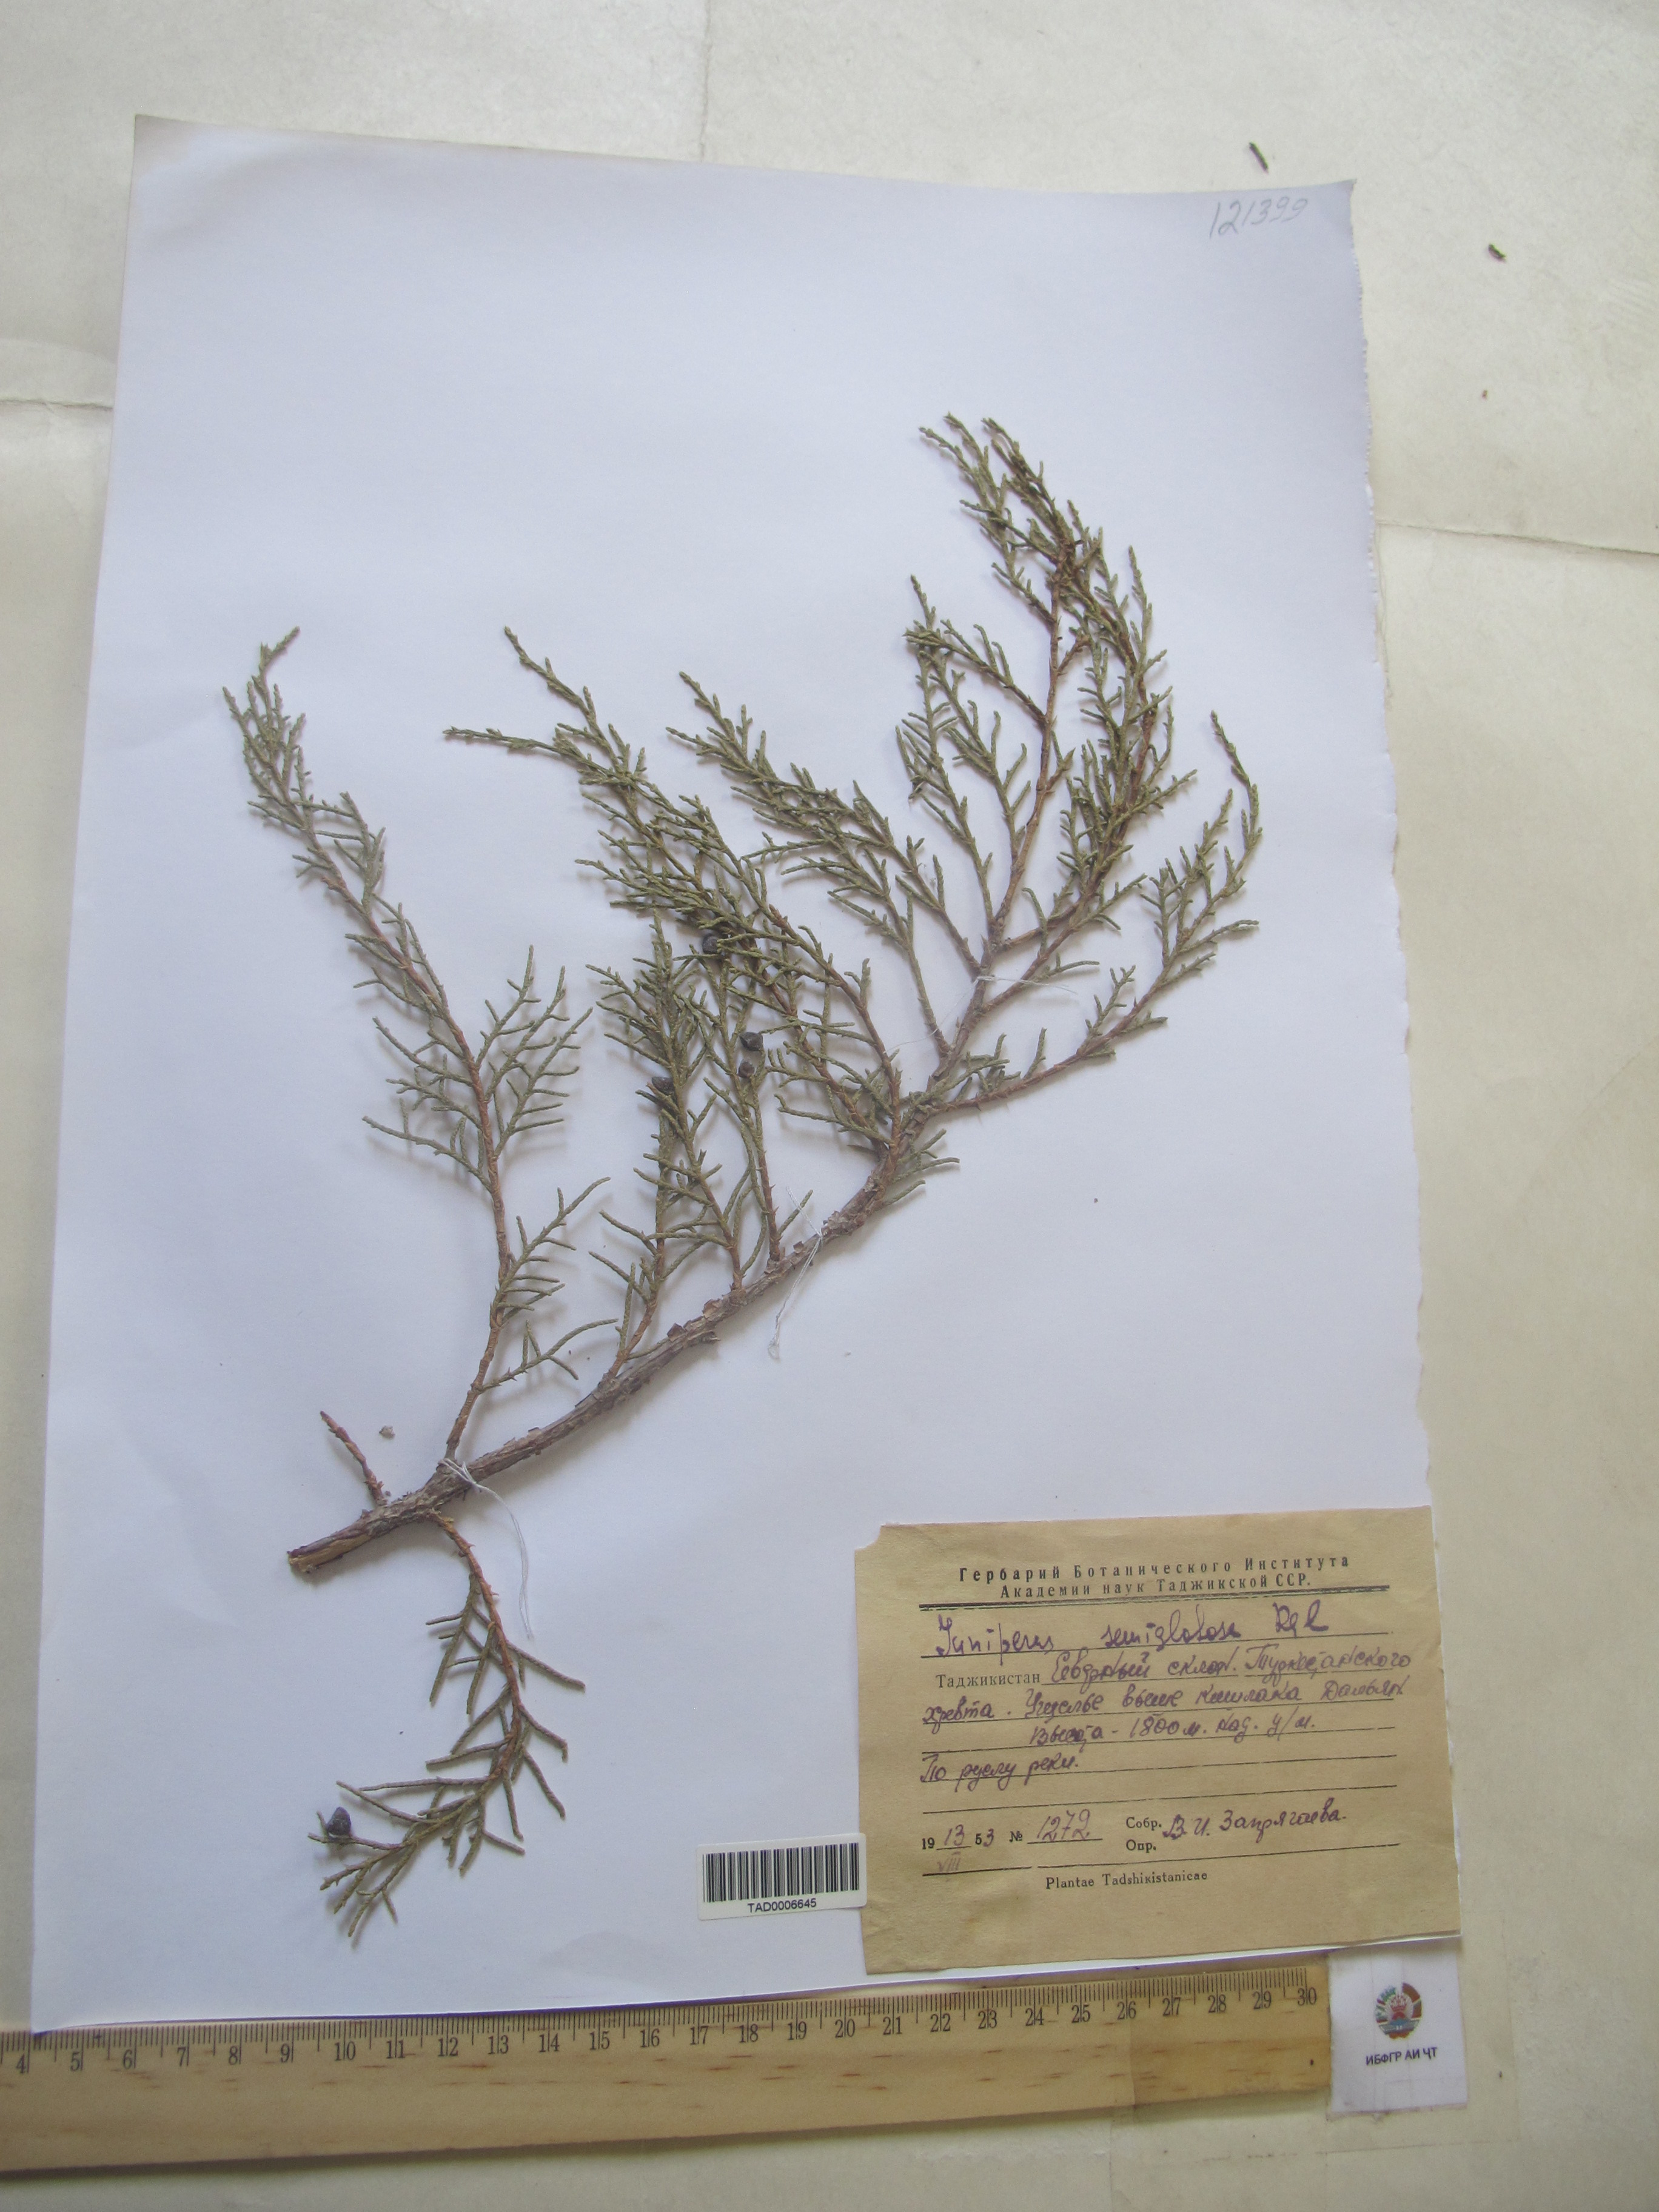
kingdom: Plantae
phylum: Tracheophyta
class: Pinopsida
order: Pinales
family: Cupressaceae
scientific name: Cupressaceae
